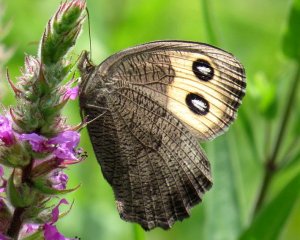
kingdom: Animalia
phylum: Arthropoda
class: Insecta
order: Lepidoptera
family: Nymphalidae
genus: Cercyonis
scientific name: Cercyonis pegala
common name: Common Wood-Nymph
